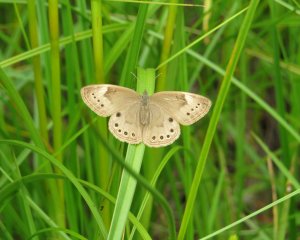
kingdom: Animalia
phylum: Arthropoda
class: Insecta
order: Lepidoptera
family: Nymphalidae
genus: Lethe
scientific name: Lethe eurydice
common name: Eyed Brown
